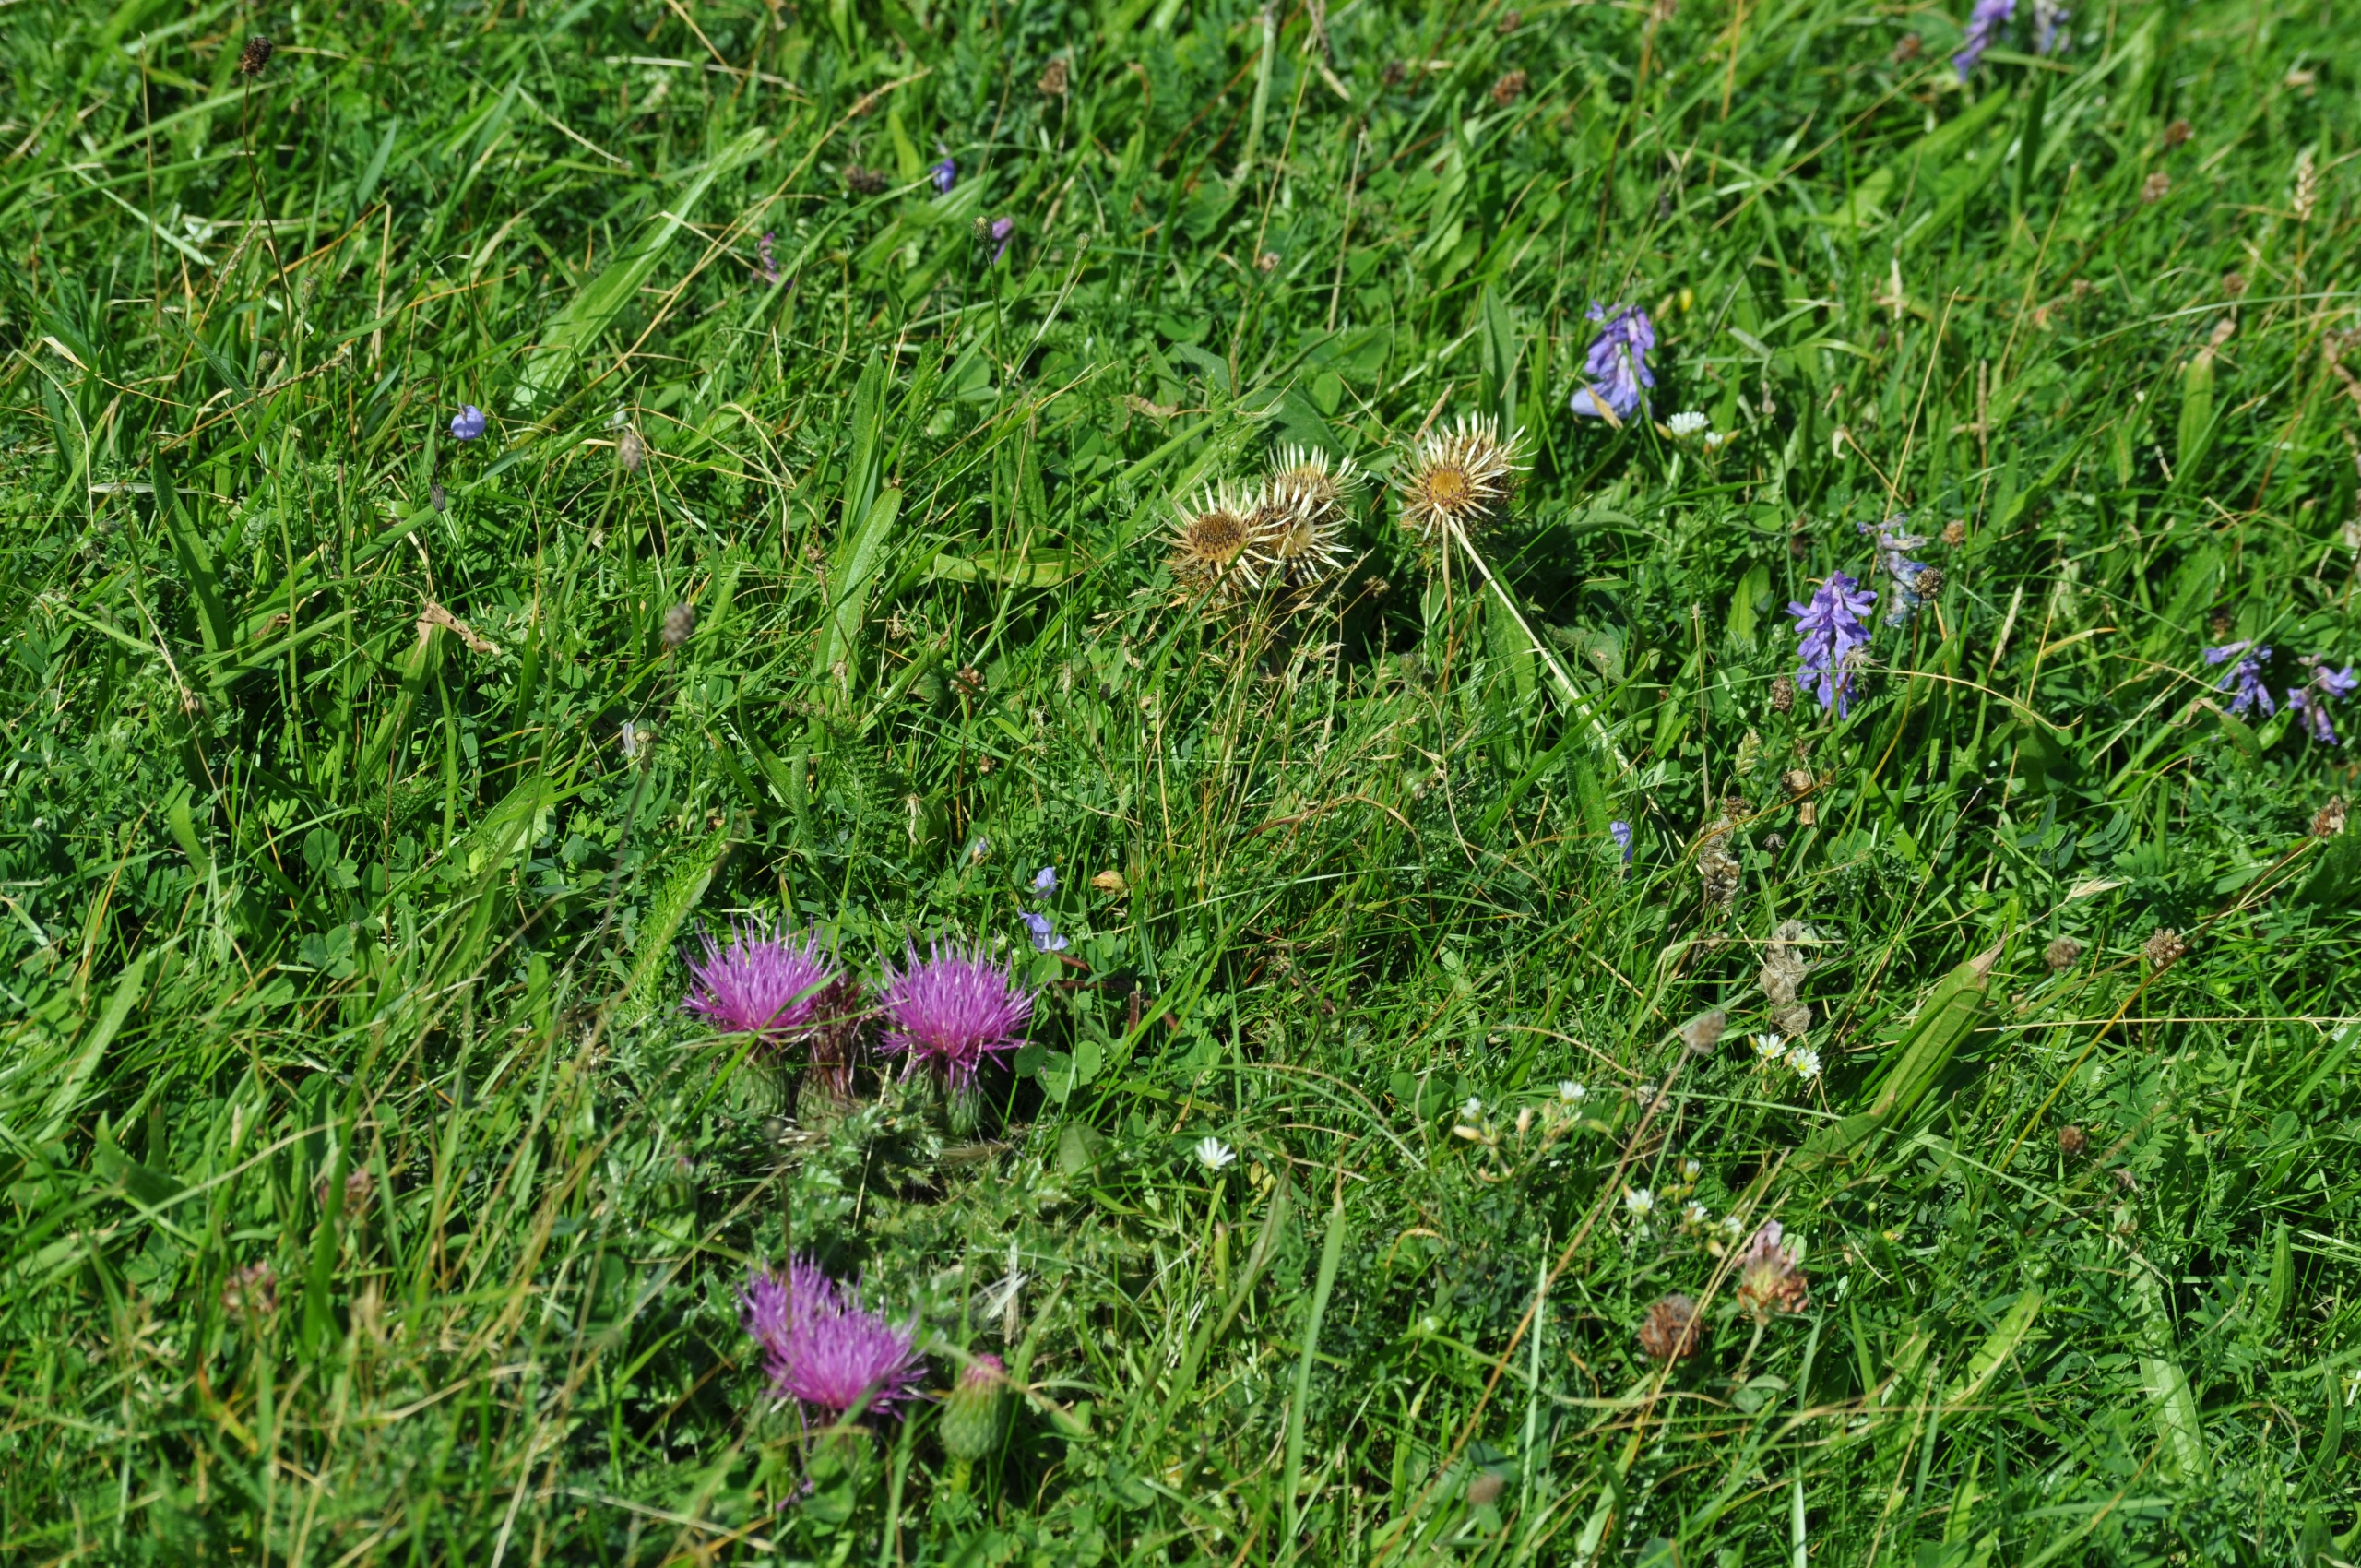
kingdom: Plantae
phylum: Tracheophyta
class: Magnoliopsida
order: Asterales
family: Asteraceae
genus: Cirsium
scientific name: Cirsium acaule
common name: Lav tidsel
